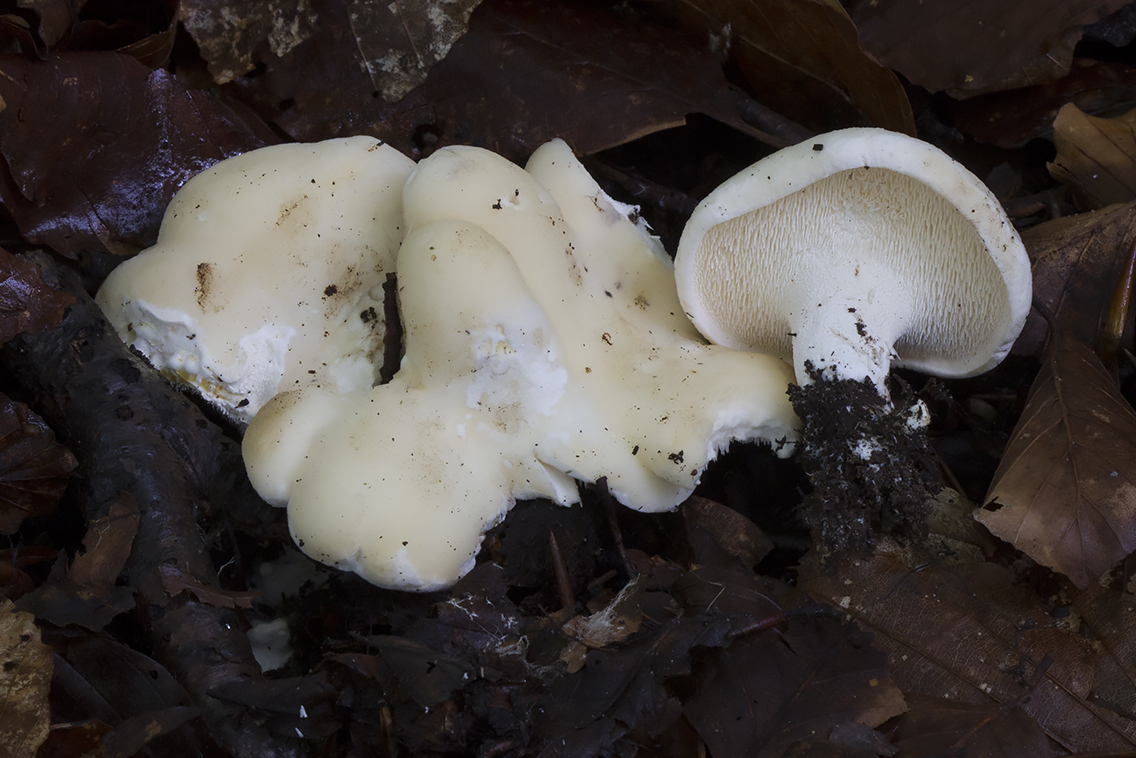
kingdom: Fungi
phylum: Basidiomycota
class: Agaricomycetes
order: Cantharellales
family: Hydnaceae
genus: Hydnum
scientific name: Hydnum repandum
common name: hvid pigsvamp
